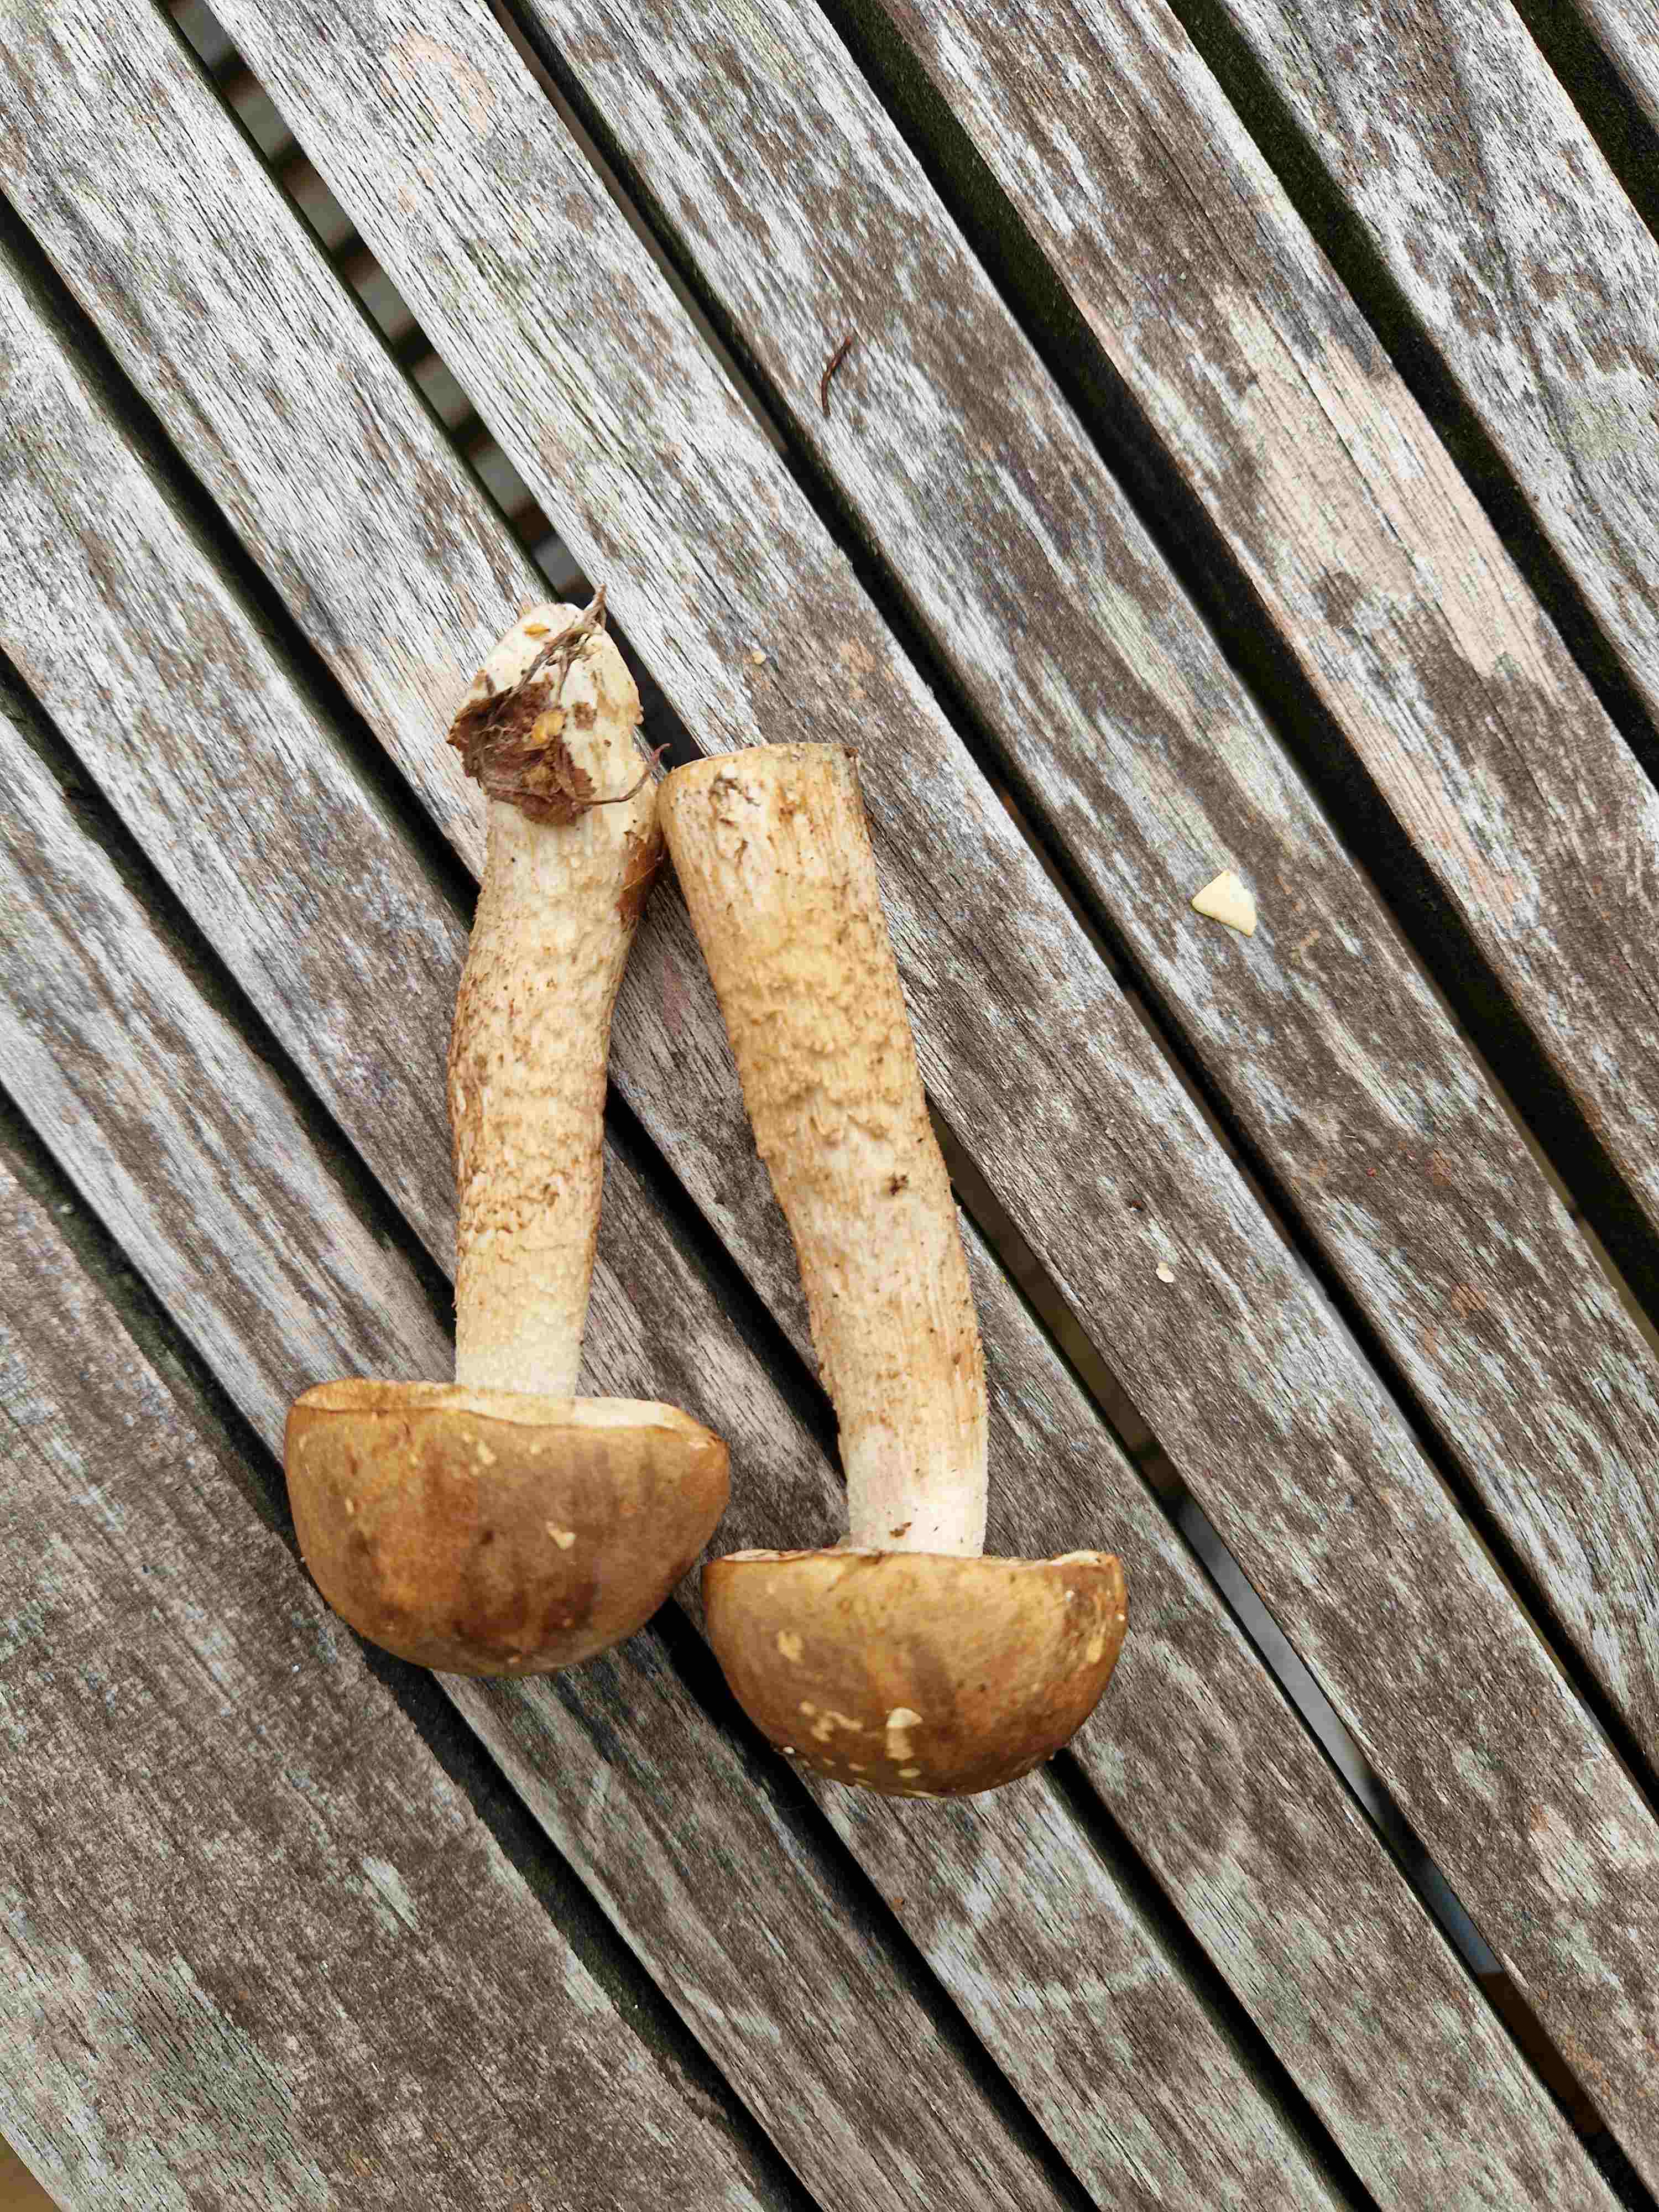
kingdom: Fungi
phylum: Basidiomycota
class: Agaricomycetes
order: Boletales
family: Boletaceae
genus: Leccinum
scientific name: Leccinum
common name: skælrørhat
